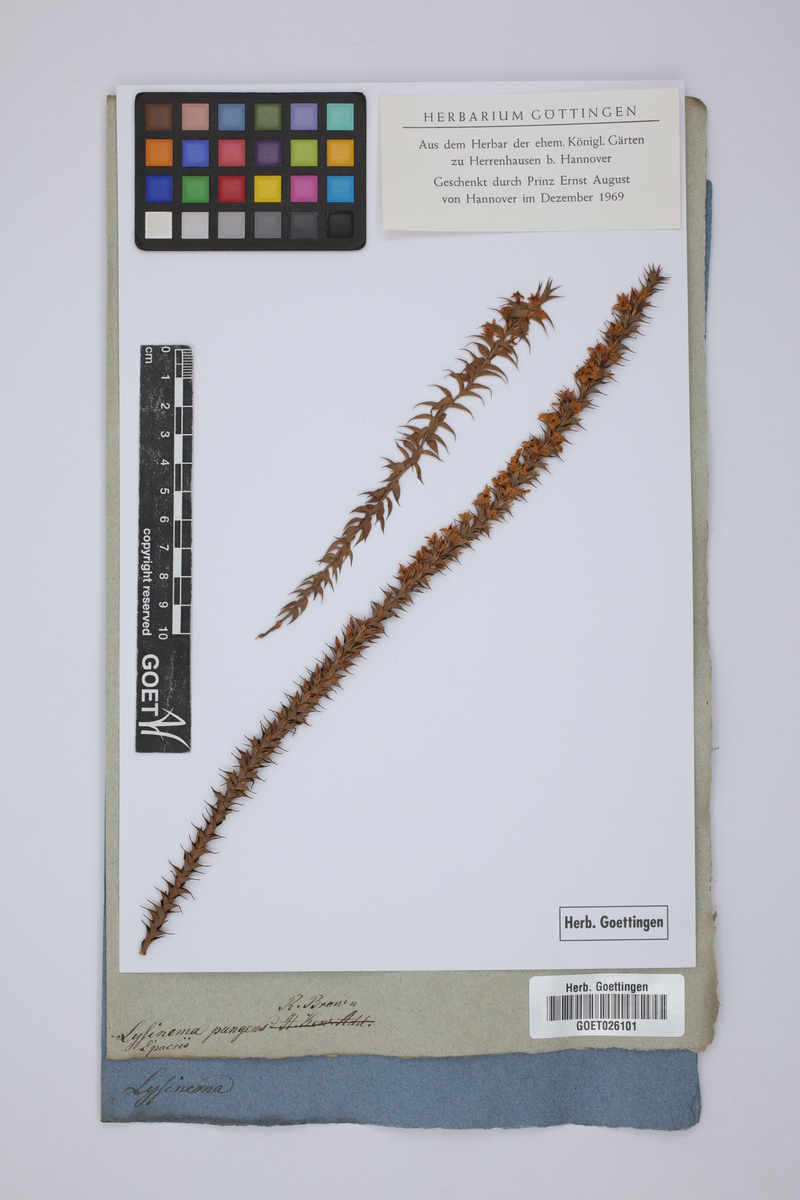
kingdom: Plantae
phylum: Tracheophyta
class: Magnoliopsida
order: Ericales
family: Ericaceae
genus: Woollsia
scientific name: Woollsia pungens
